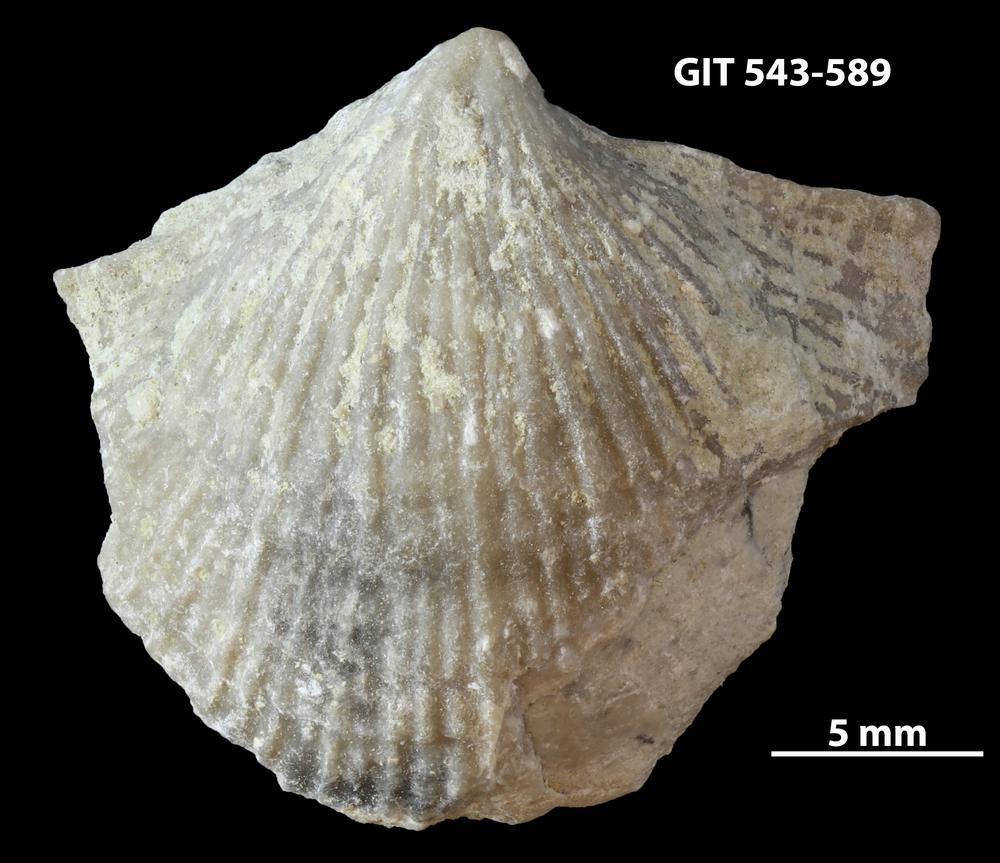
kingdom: Animalia
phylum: Brachiopoda
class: Rhynchonellata
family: Clitambonitidae
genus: Vellamo
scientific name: Vellamo Orthis verneuili
